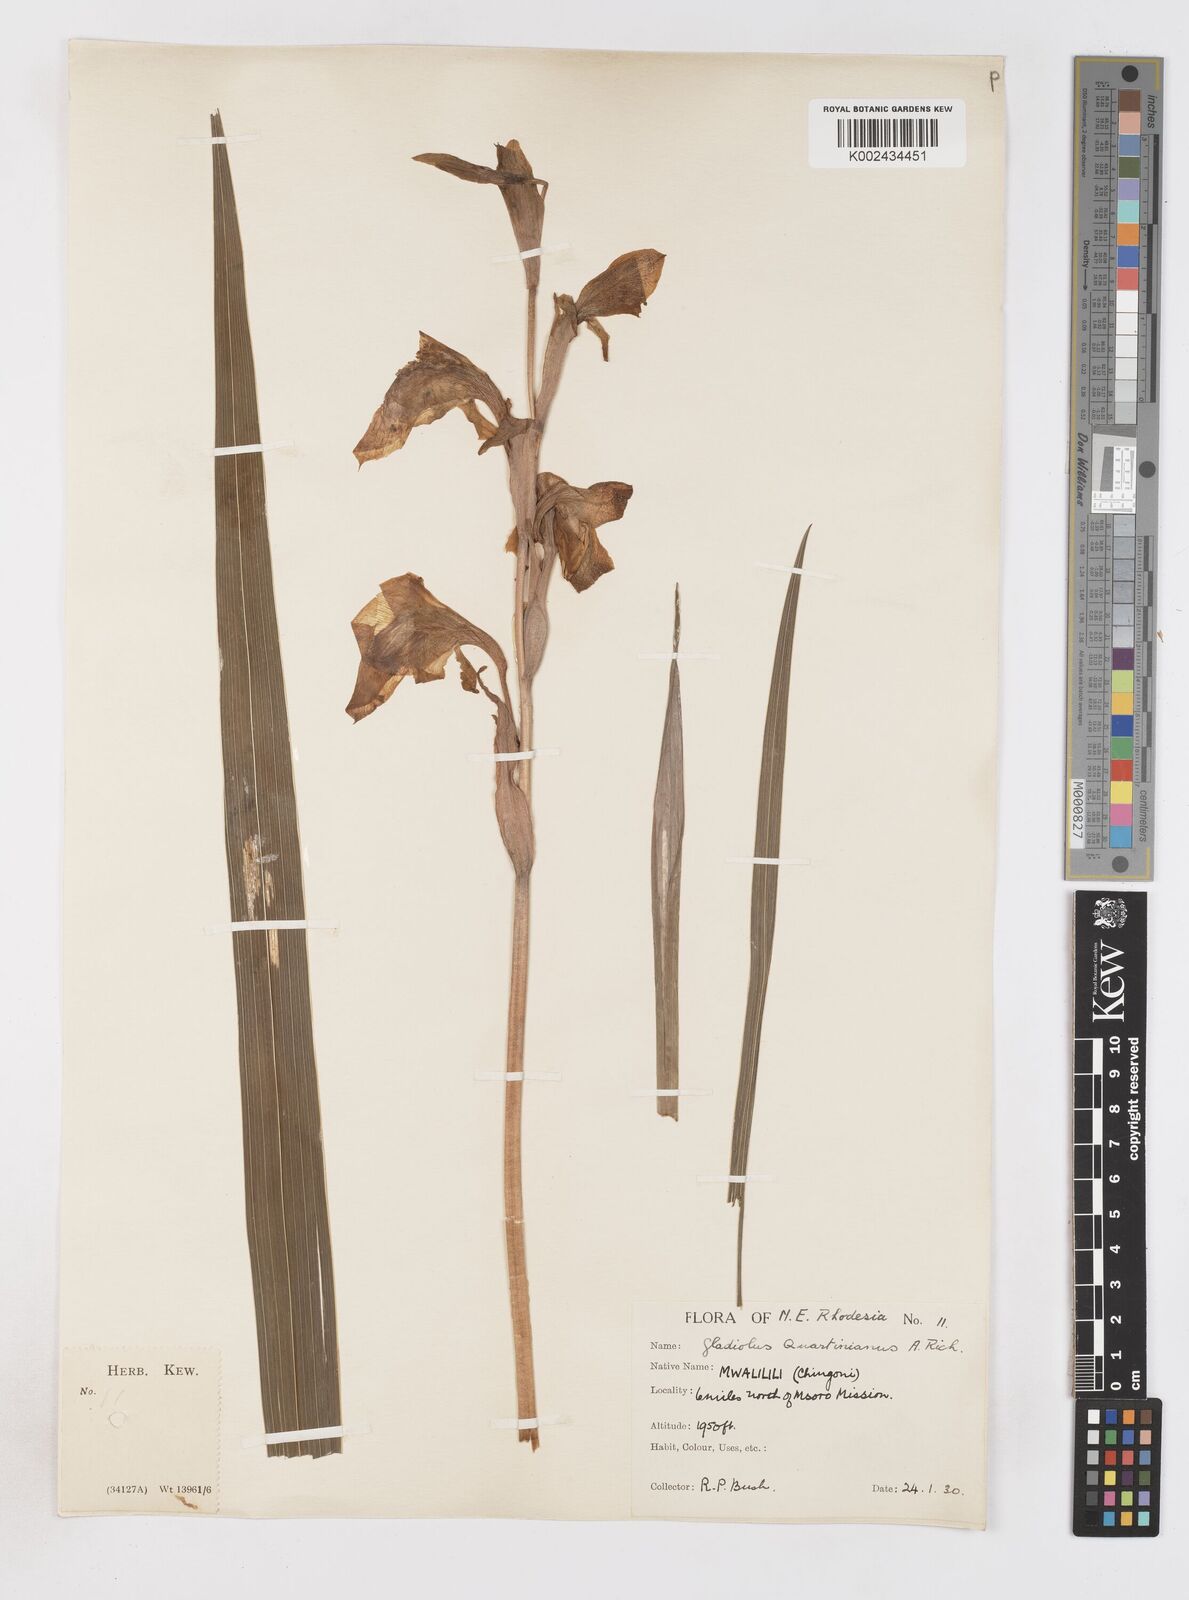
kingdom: Plantae
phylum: Tracheophyta
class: Liliopsida
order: Asparagales
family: Iridaceae
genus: Gladiolus
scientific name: Gladiolus dalenii
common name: Cornflag
